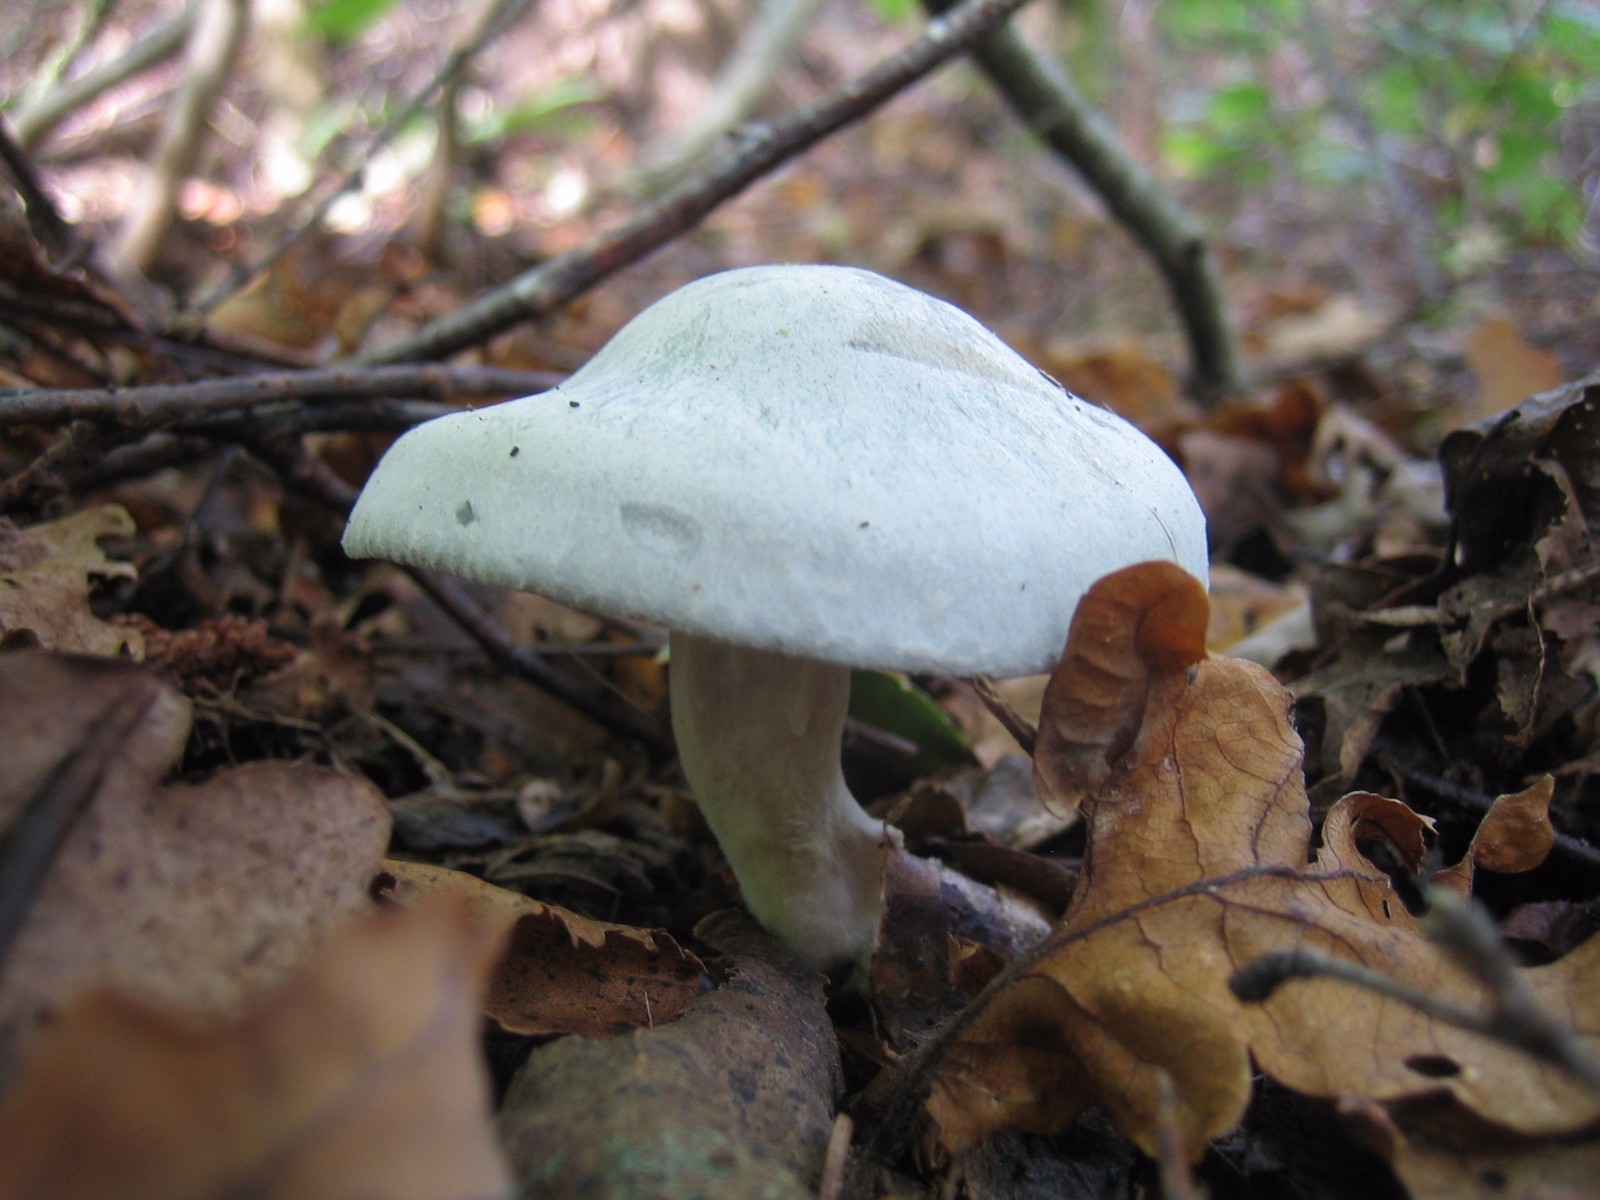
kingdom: Fungi
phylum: Basidiomycota
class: Agaricomycetes
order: Agaricales
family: Tricholomataceae
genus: Clitocybe
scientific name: Clitocybe odora
